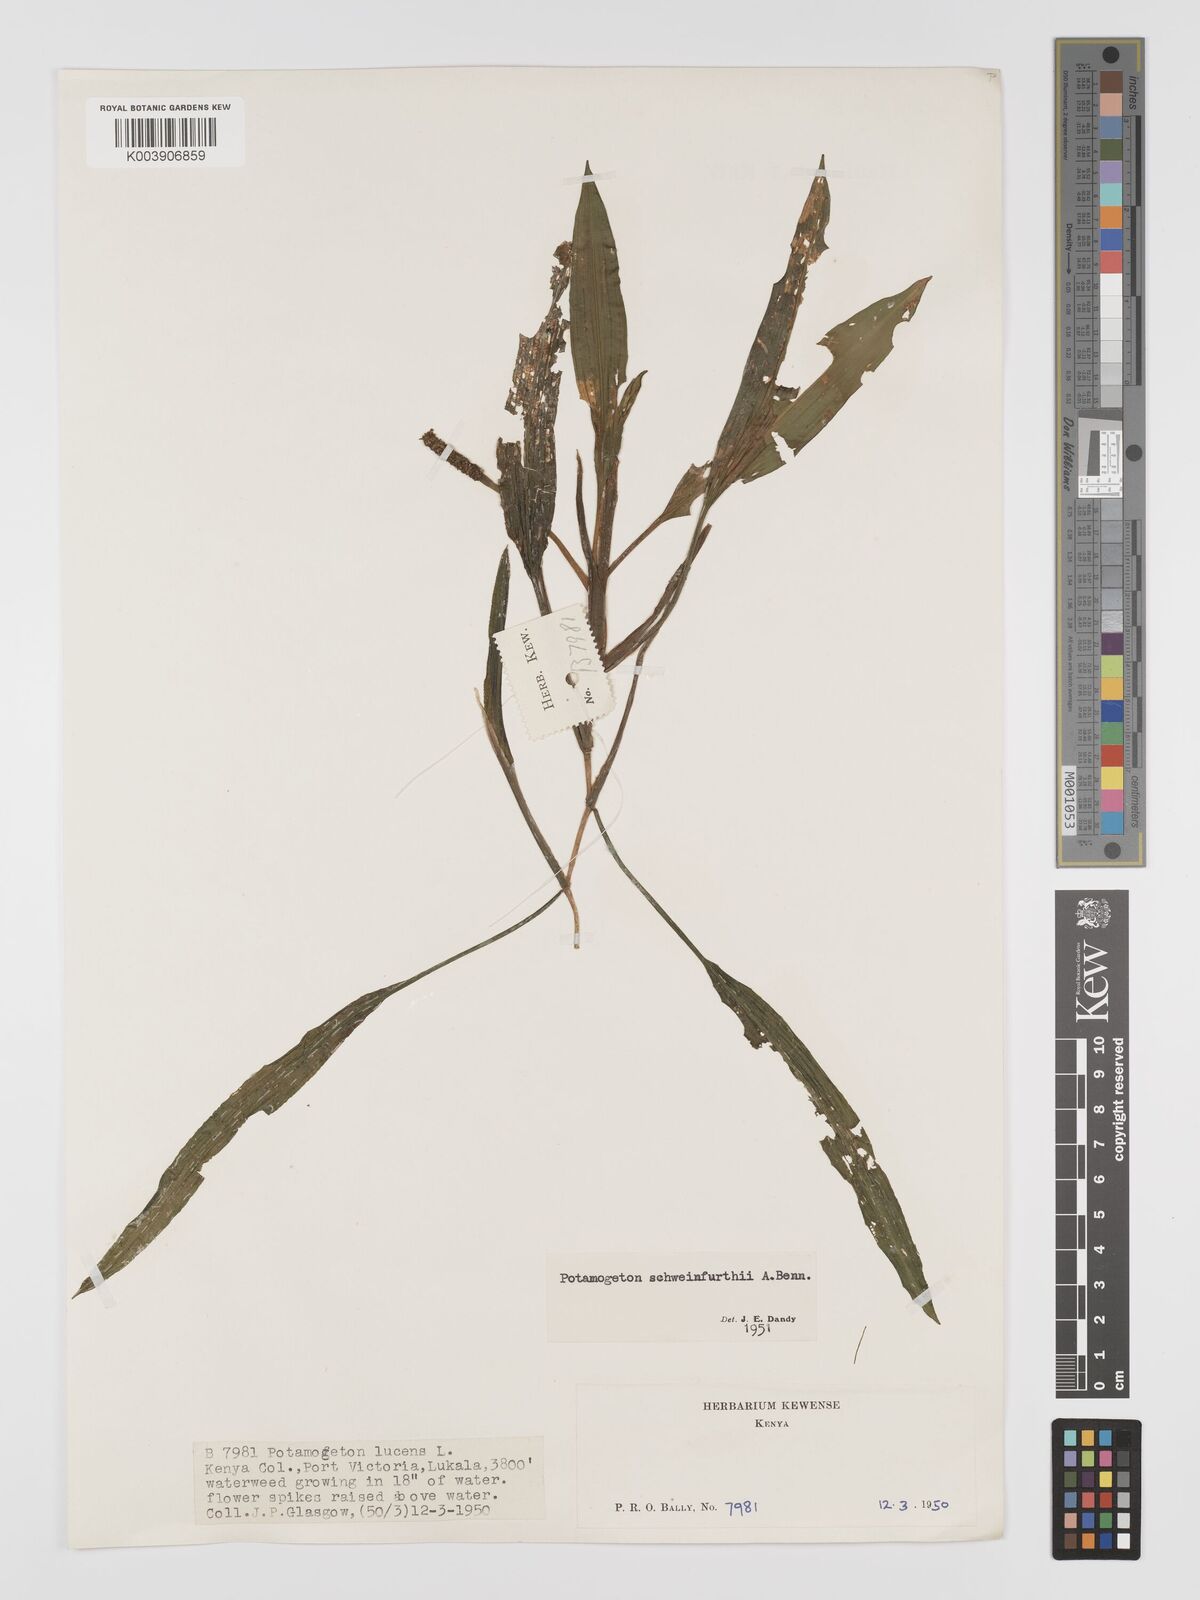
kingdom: Plantae
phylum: Tracheophyta
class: Liliopsida
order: Alismatales
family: Potamogetonaceae
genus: Potamogeton
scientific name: Potamogeton schweinfurthii
